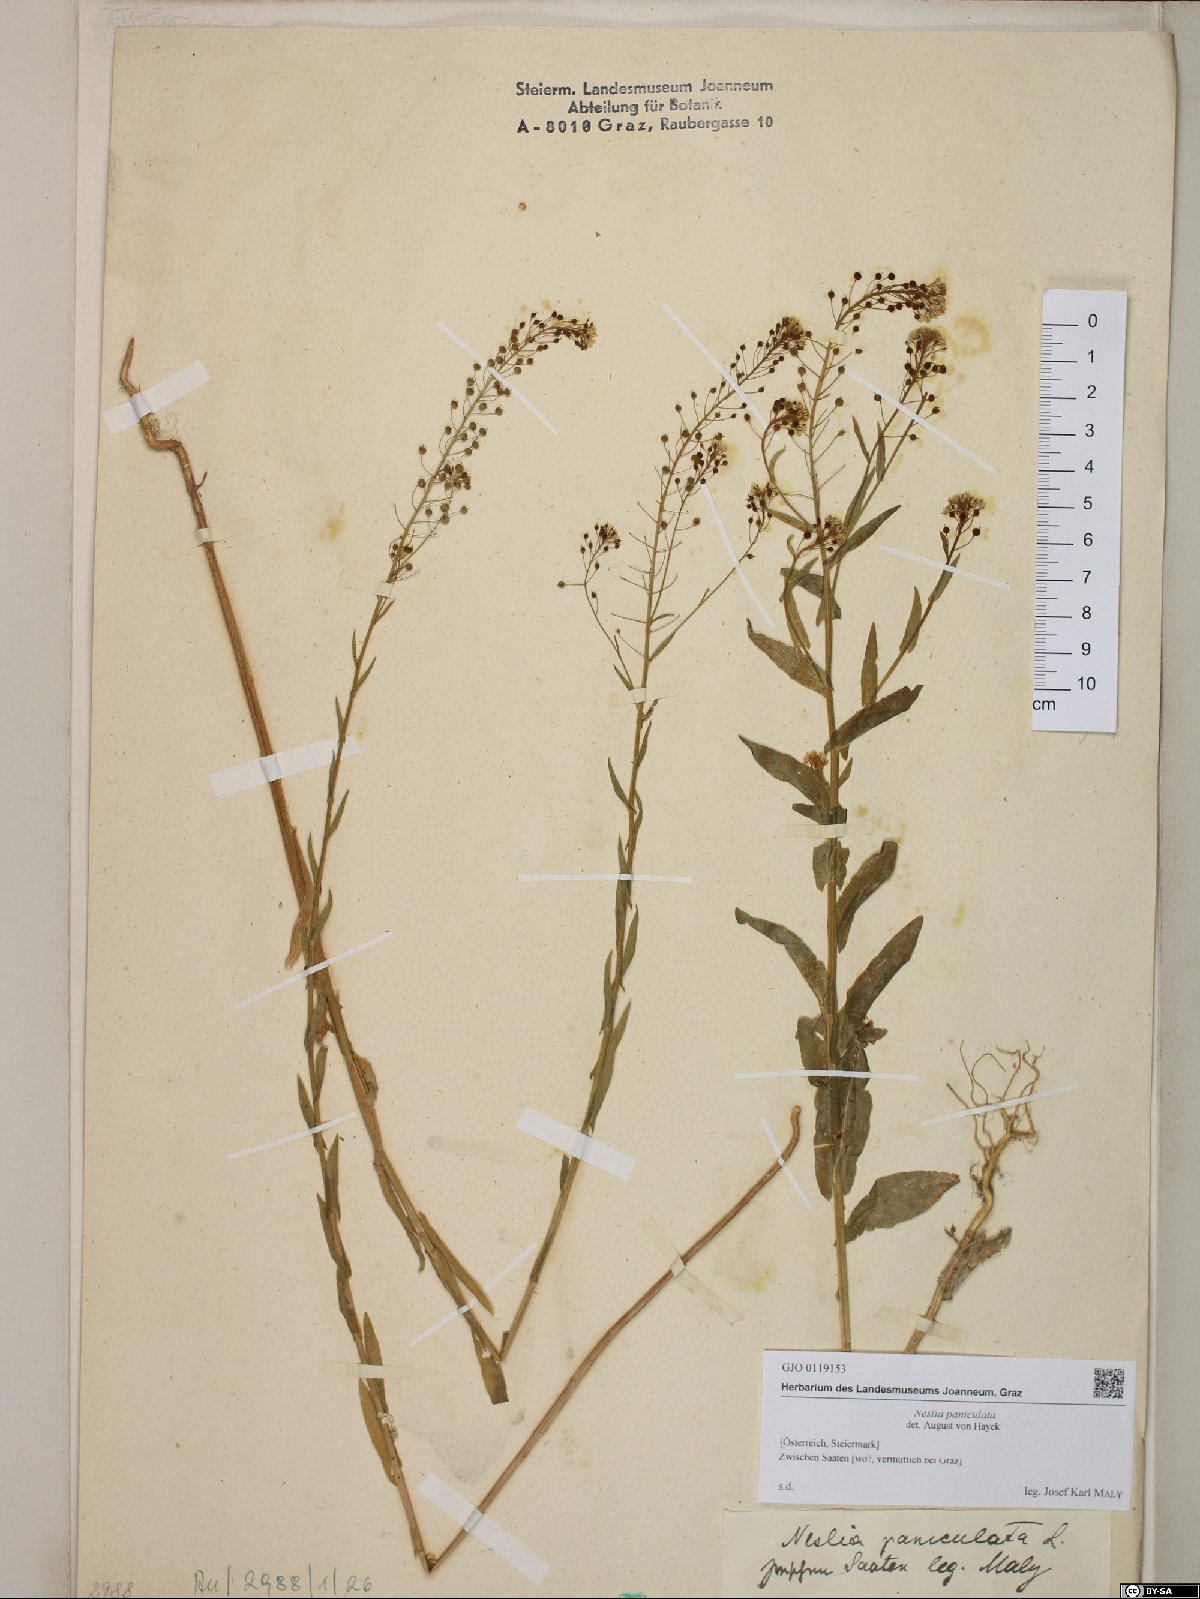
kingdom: Plantae
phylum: Tracheophyta
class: Magnoliopsida
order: Brassicales
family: Brassicaceae
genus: Neslia
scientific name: Neslia paniculata
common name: Ball mustard
